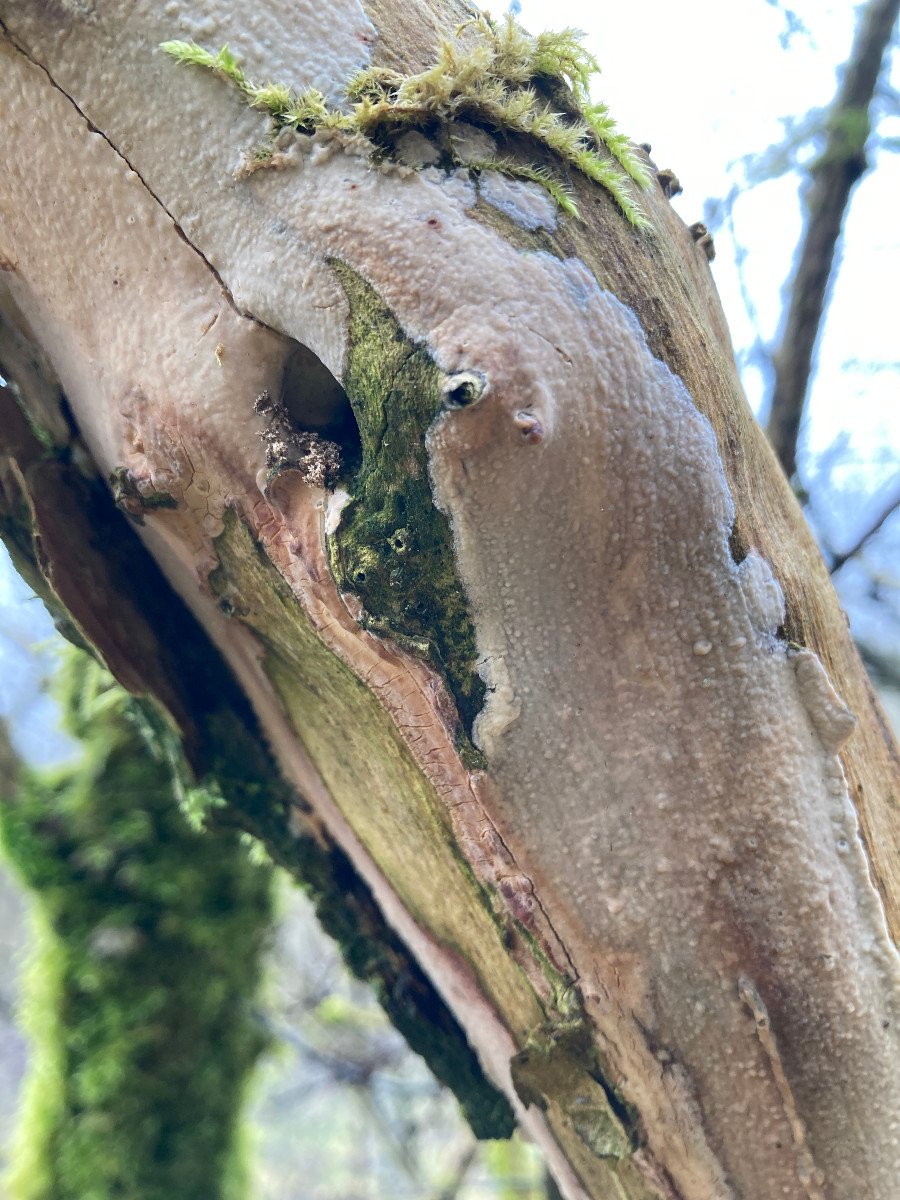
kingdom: Fungi
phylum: Basidiomycota
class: Agaricomycetes
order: Corticiales
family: Corticiaceae
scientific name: Corticiaceae
